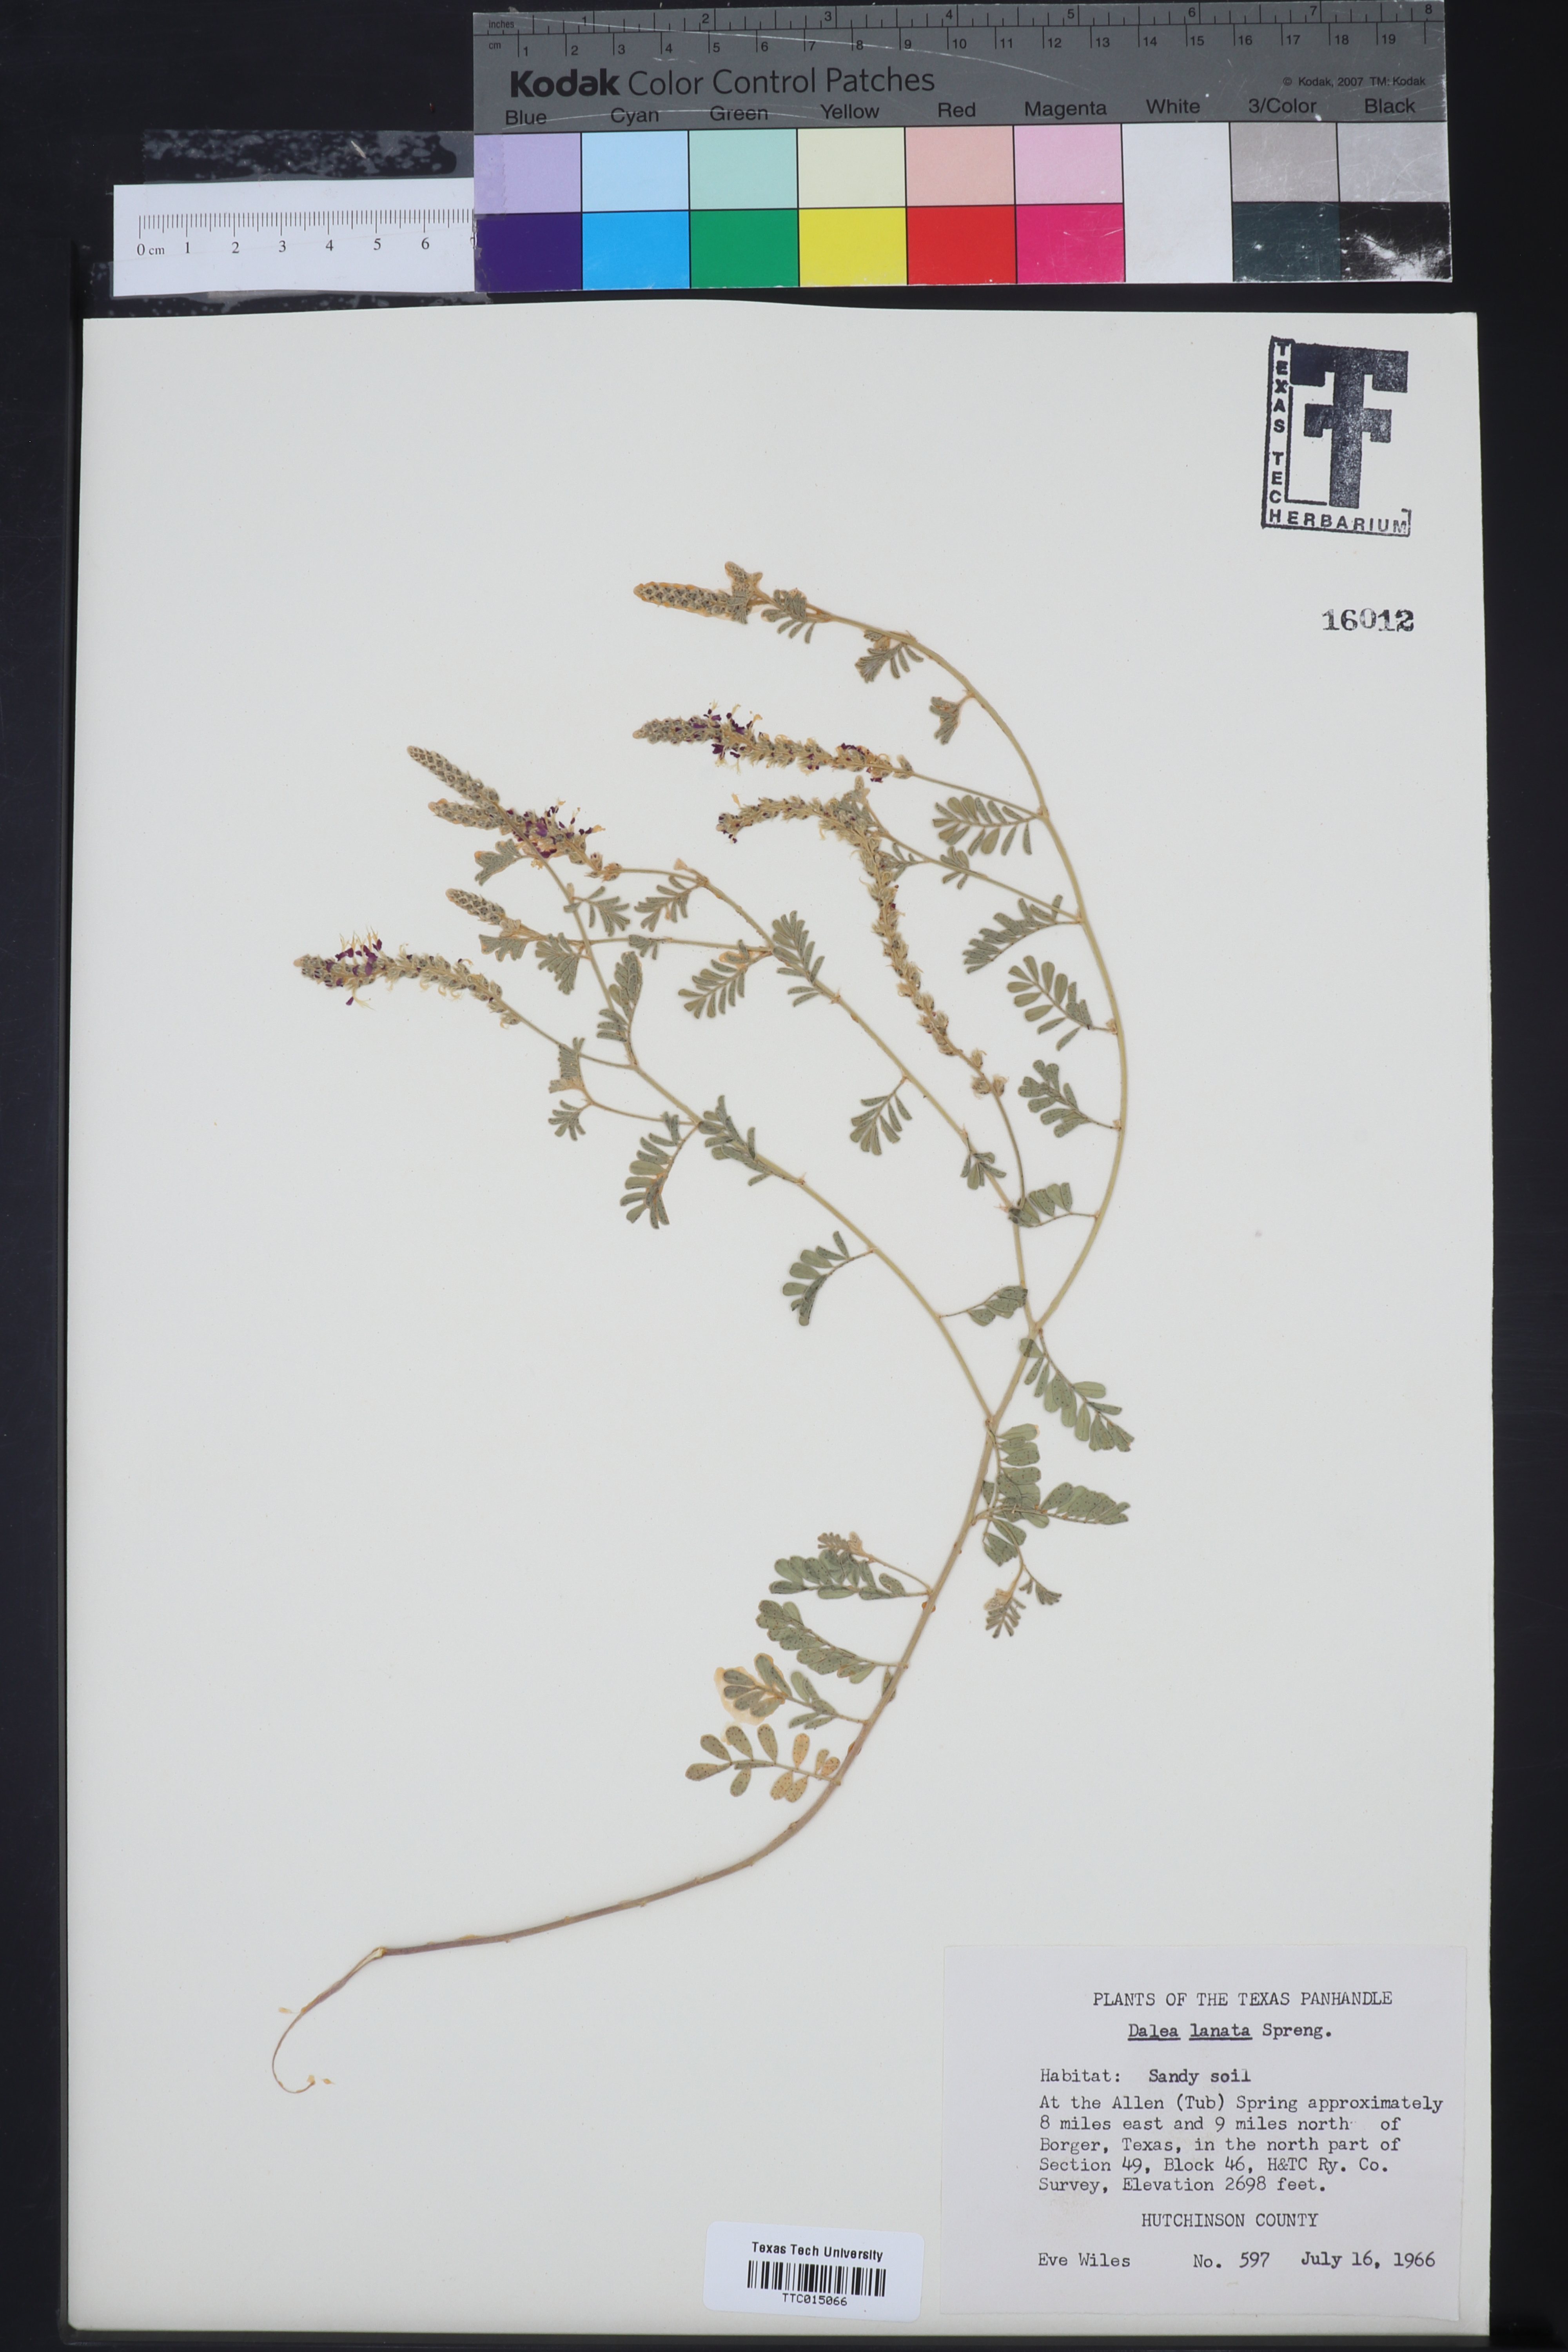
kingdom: Plantae
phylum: Tracheophyta
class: Magnoliopsida
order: Fabales
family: Fabaceae
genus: Dalea
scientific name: Dalea lanata
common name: Woolly dalea
